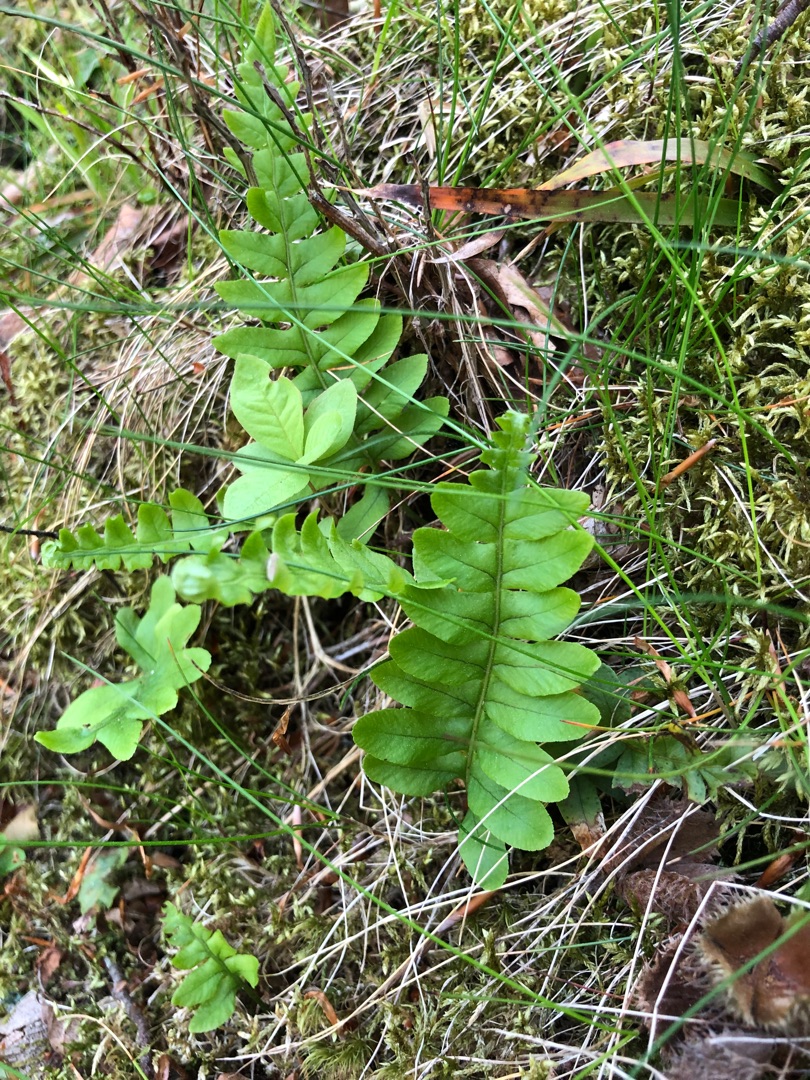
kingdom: Plantae
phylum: Tracheophyta
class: Polypodiopsida
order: Polypodiales
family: Polypodiaceae
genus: Polypodium
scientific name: Polypodium vulgare
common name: Almindelig engelsød
